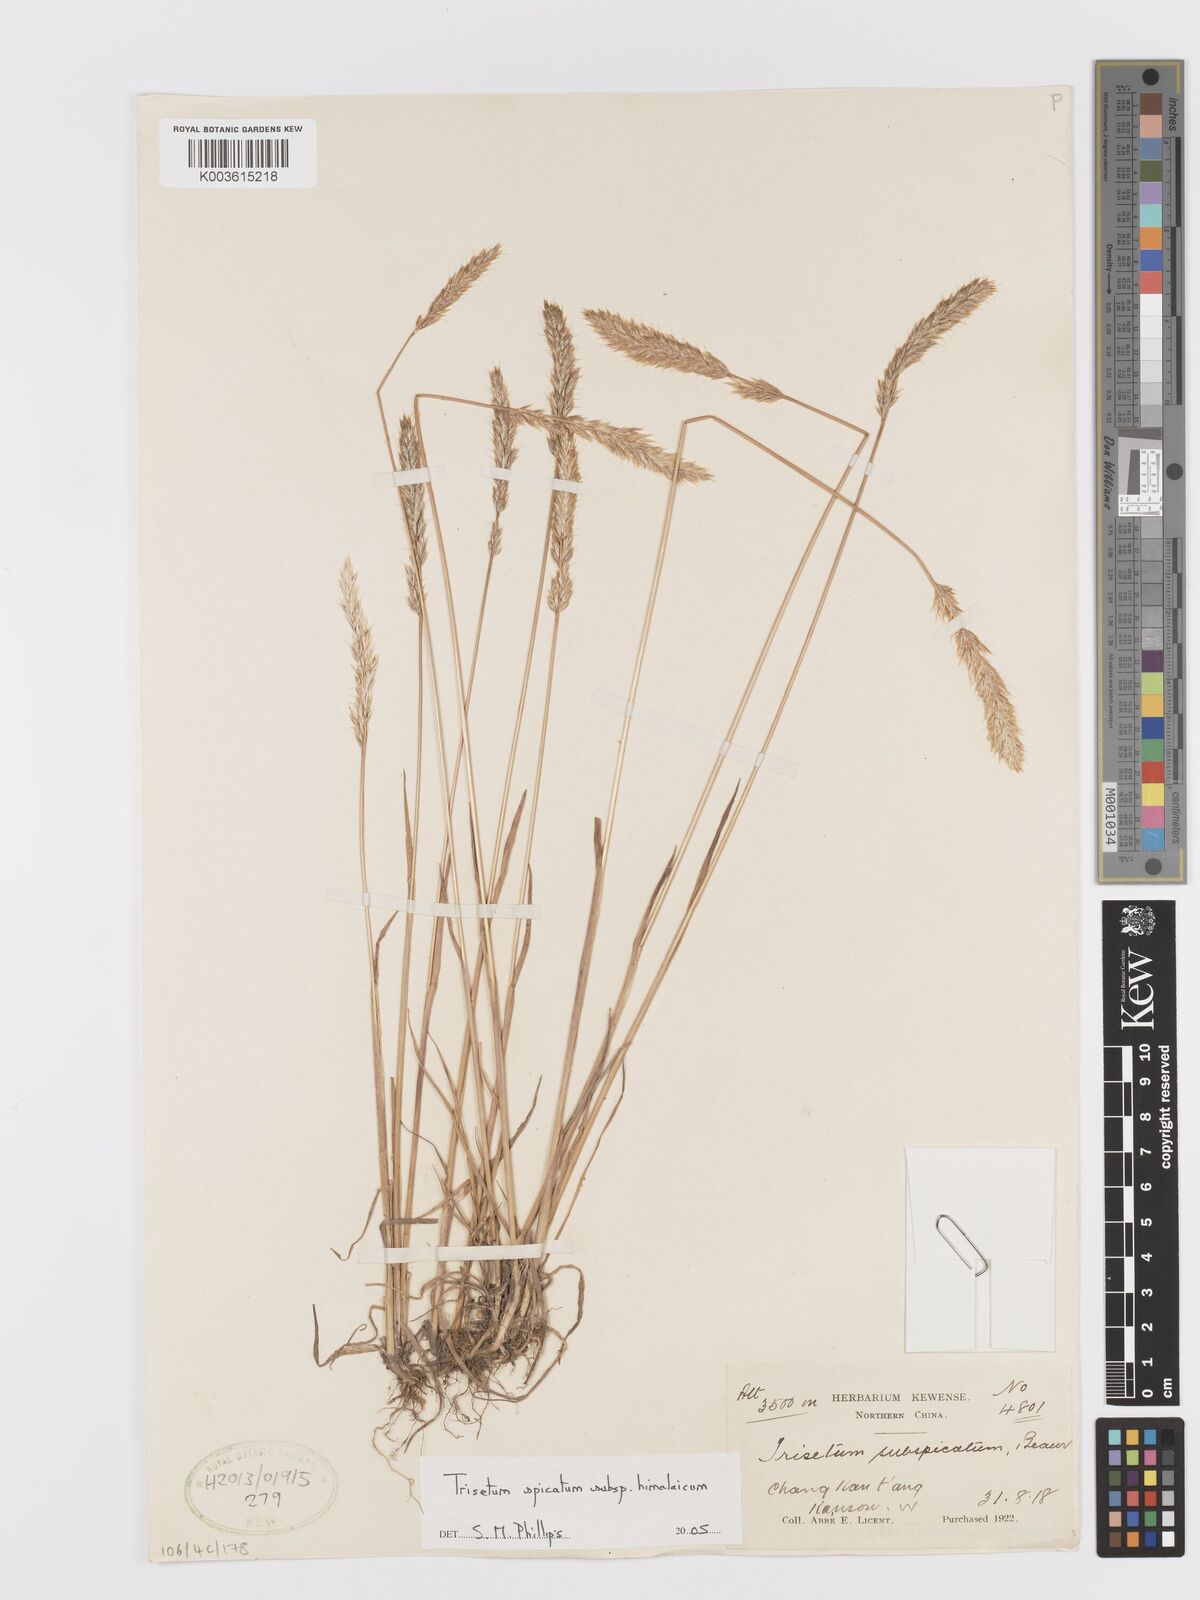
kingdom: Plantae
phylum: Tracheophyta
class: Liliopsida
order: Poales
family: Poaceae
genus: Koeleria
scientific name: Koeleria spicata
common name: Mountain trisetum
